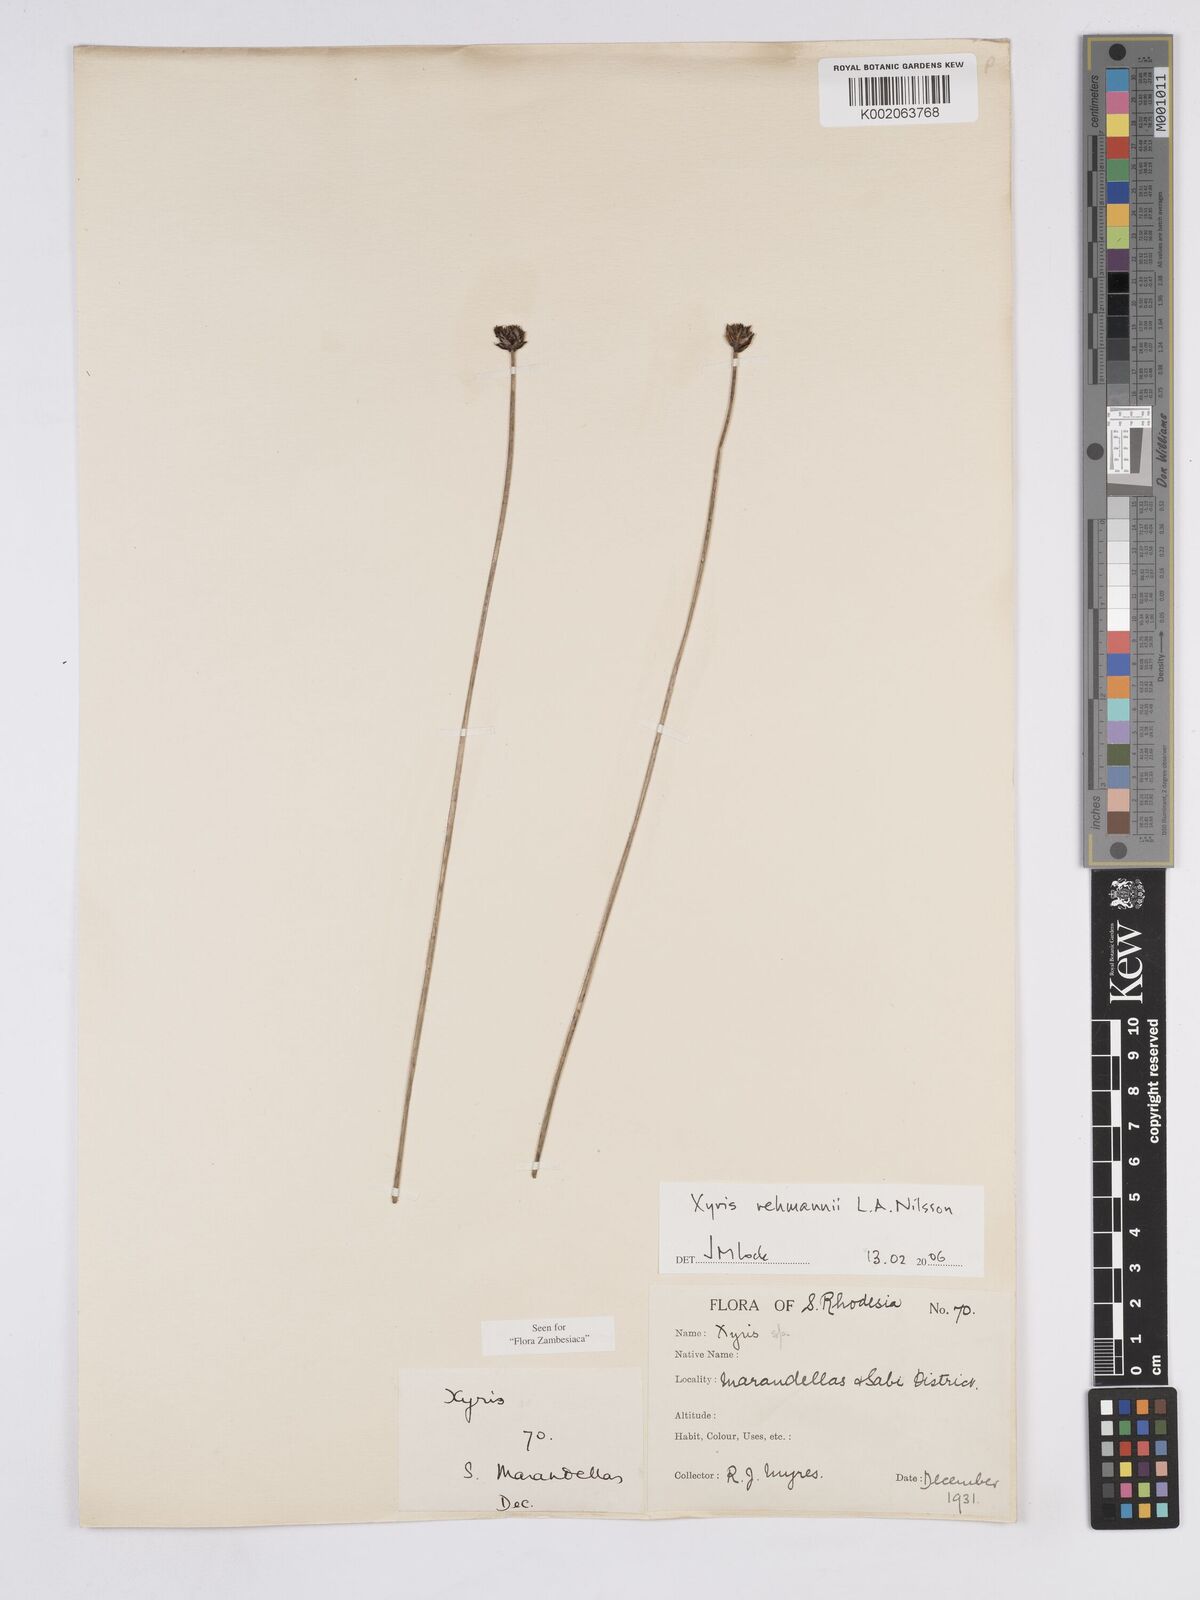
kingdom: Plantae
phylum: Tracheophyta
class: Liliopsida
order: Poales
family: Xyridaceae
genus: Xyris
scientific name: Xyris rehmannii
